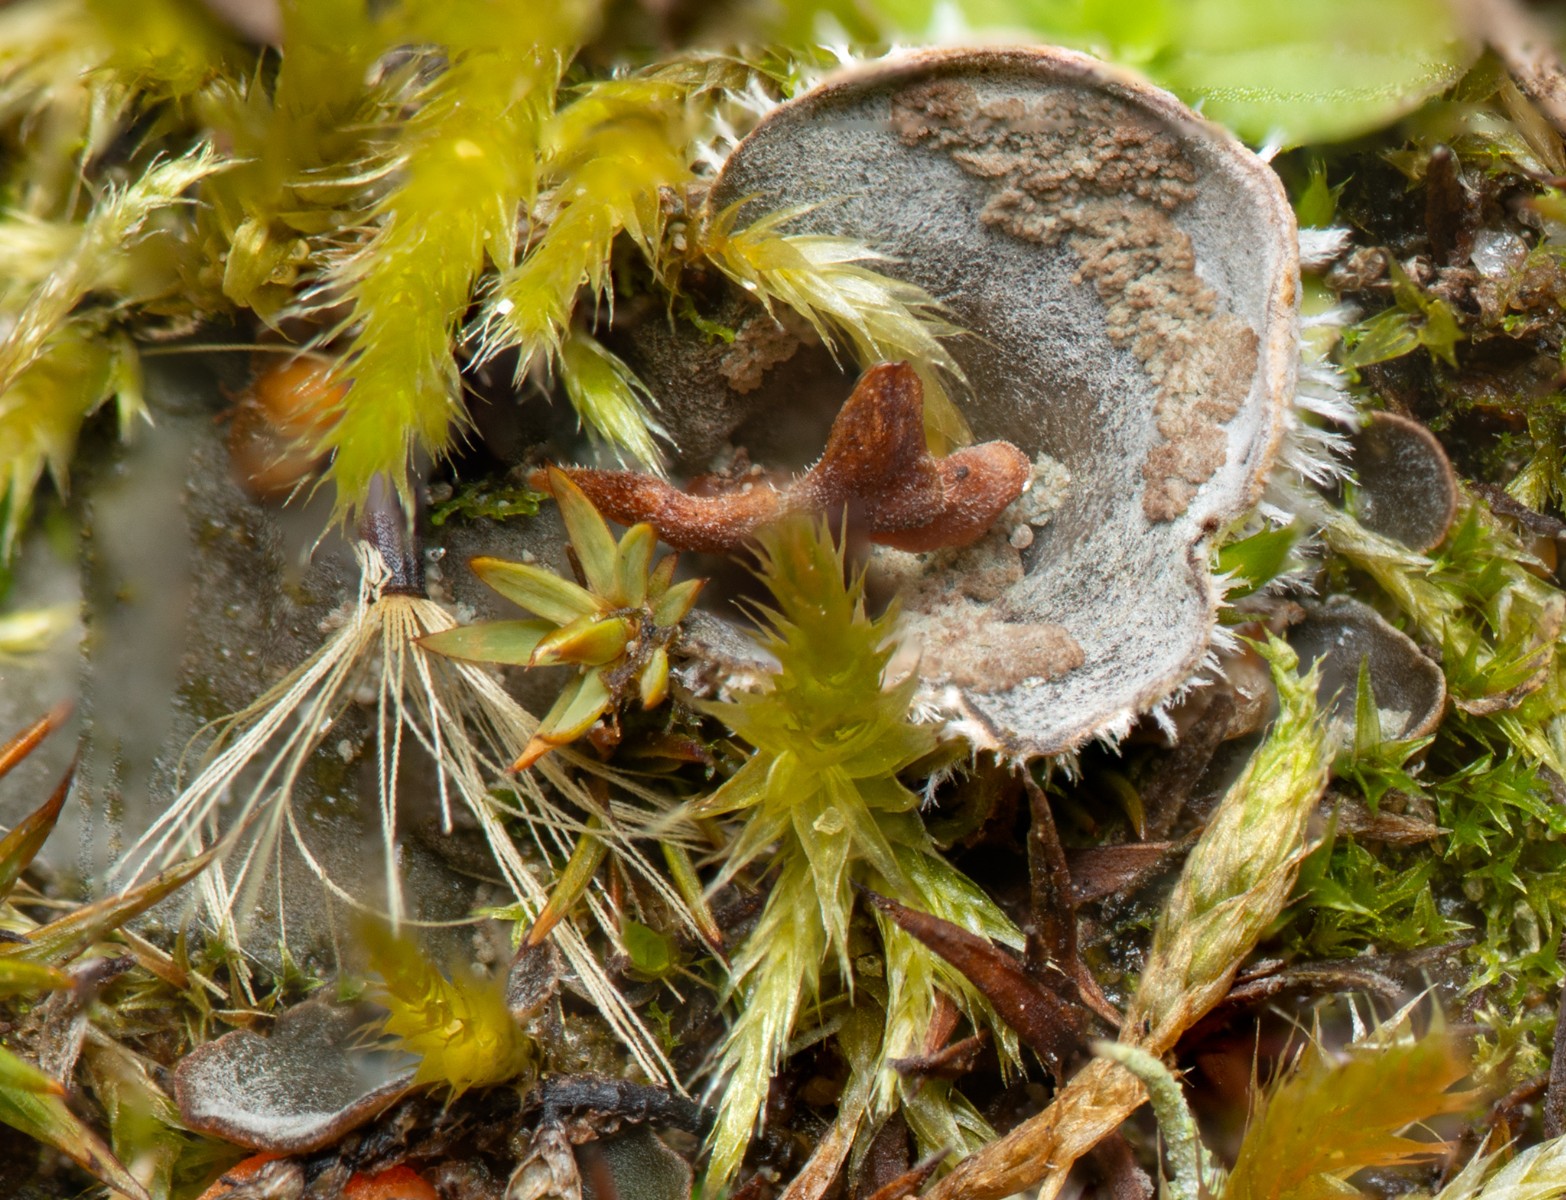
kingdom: Fungi
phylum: Ascomycota
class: Lecanoromycetes
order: Peltigerales
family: Peltigeraceae
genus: Peltigera
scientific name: Peltigera didactyla
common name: liden skjoldlav
